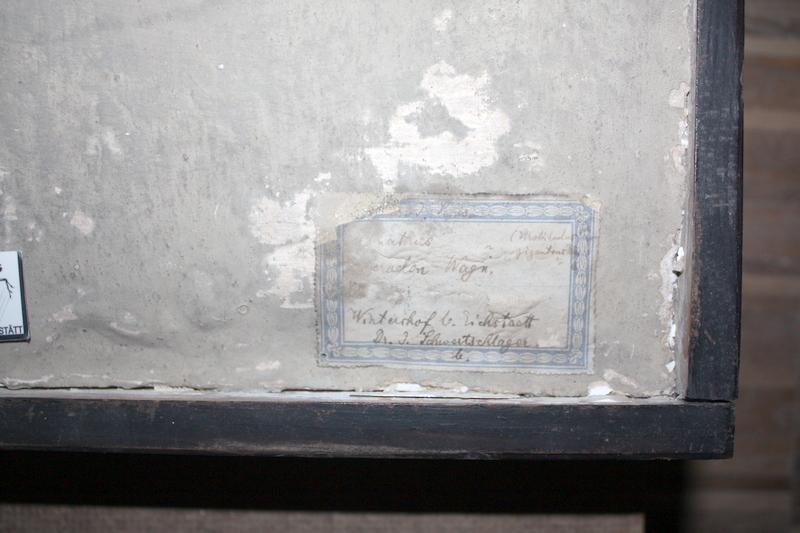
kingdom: Animalia
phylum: Chordata
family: Pachycormidae
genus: Simocormus
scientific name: Simocormus macrolepidotus
